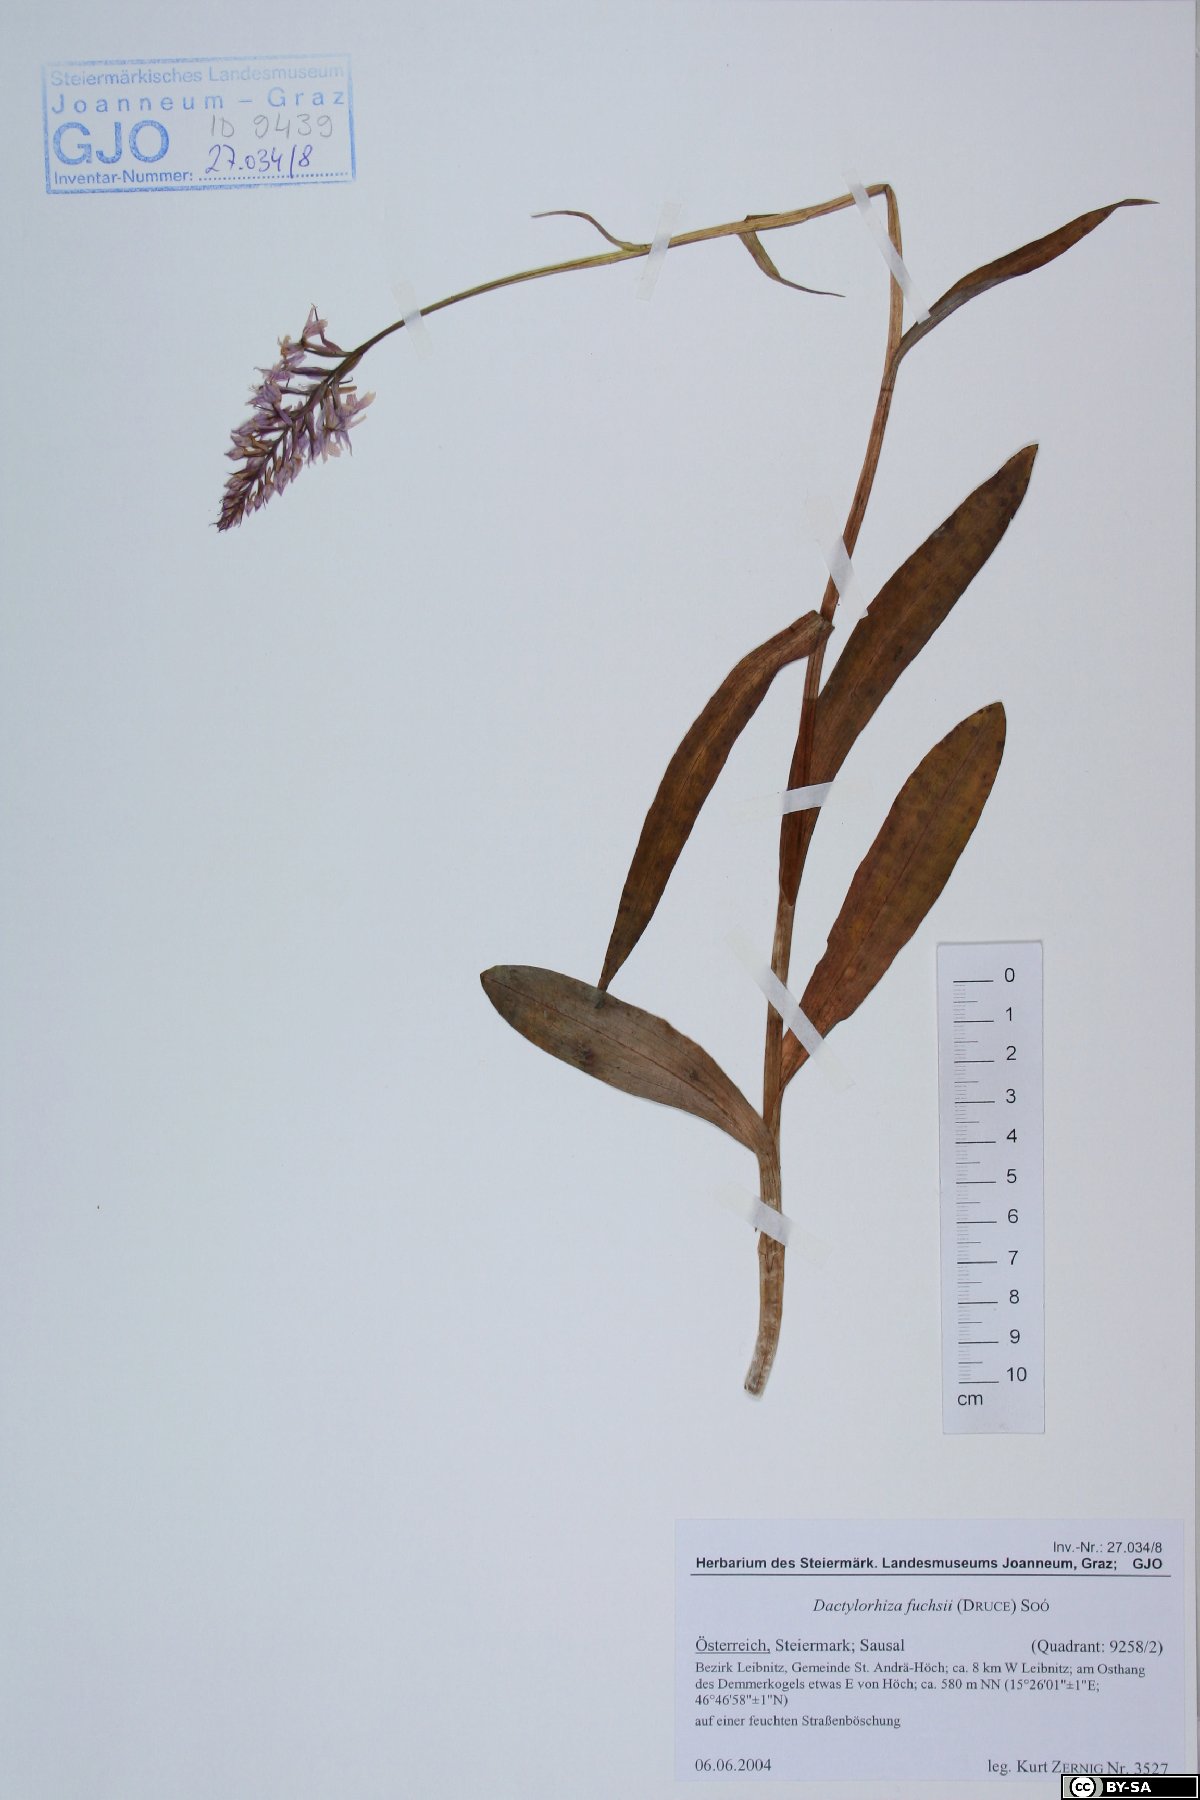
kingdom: Plantae
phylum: Tracheophyta
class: Liliopsida
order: Asparagales
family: Orchidaceae
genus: Dactylorhiza
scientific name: Dactylorhiza maculata
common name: Heath spotted-orchid
